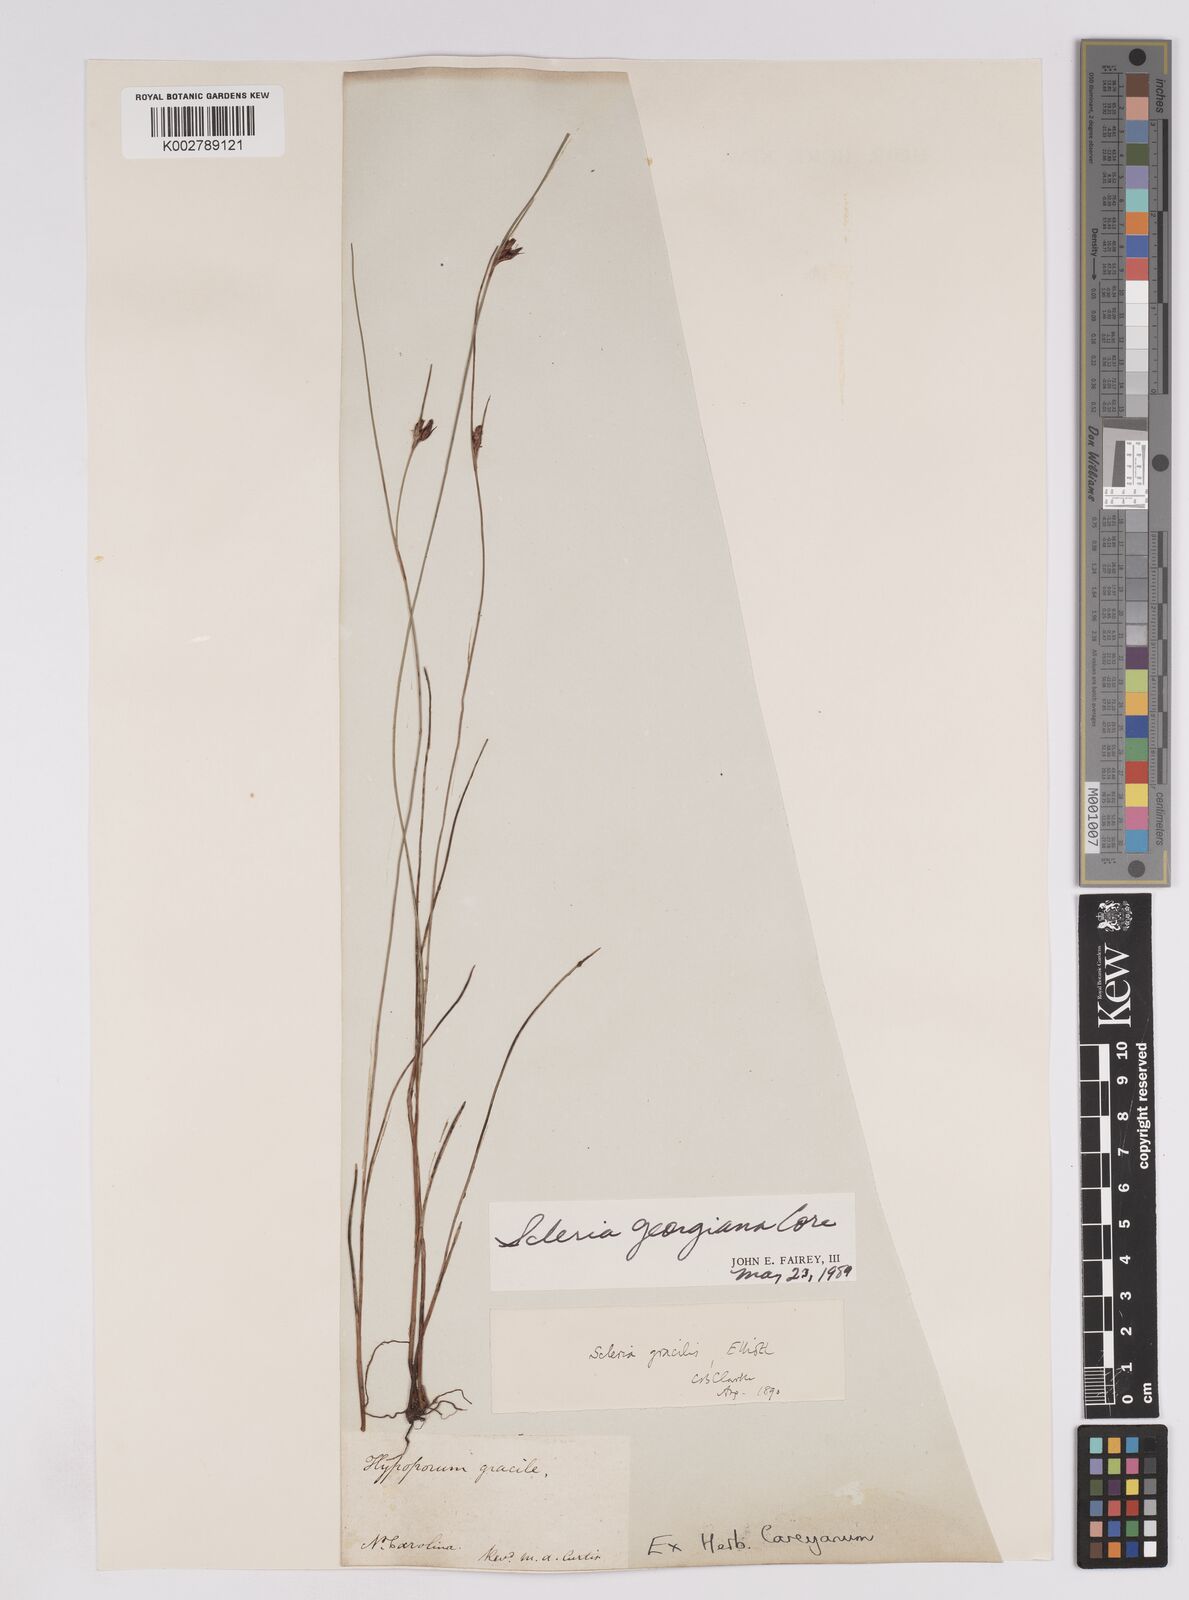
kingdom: Plantae
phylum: Tracheophyta
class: Liliopsida
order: Poales
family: Cyperaceae
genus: Scleria
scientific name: Scleria georgiana
